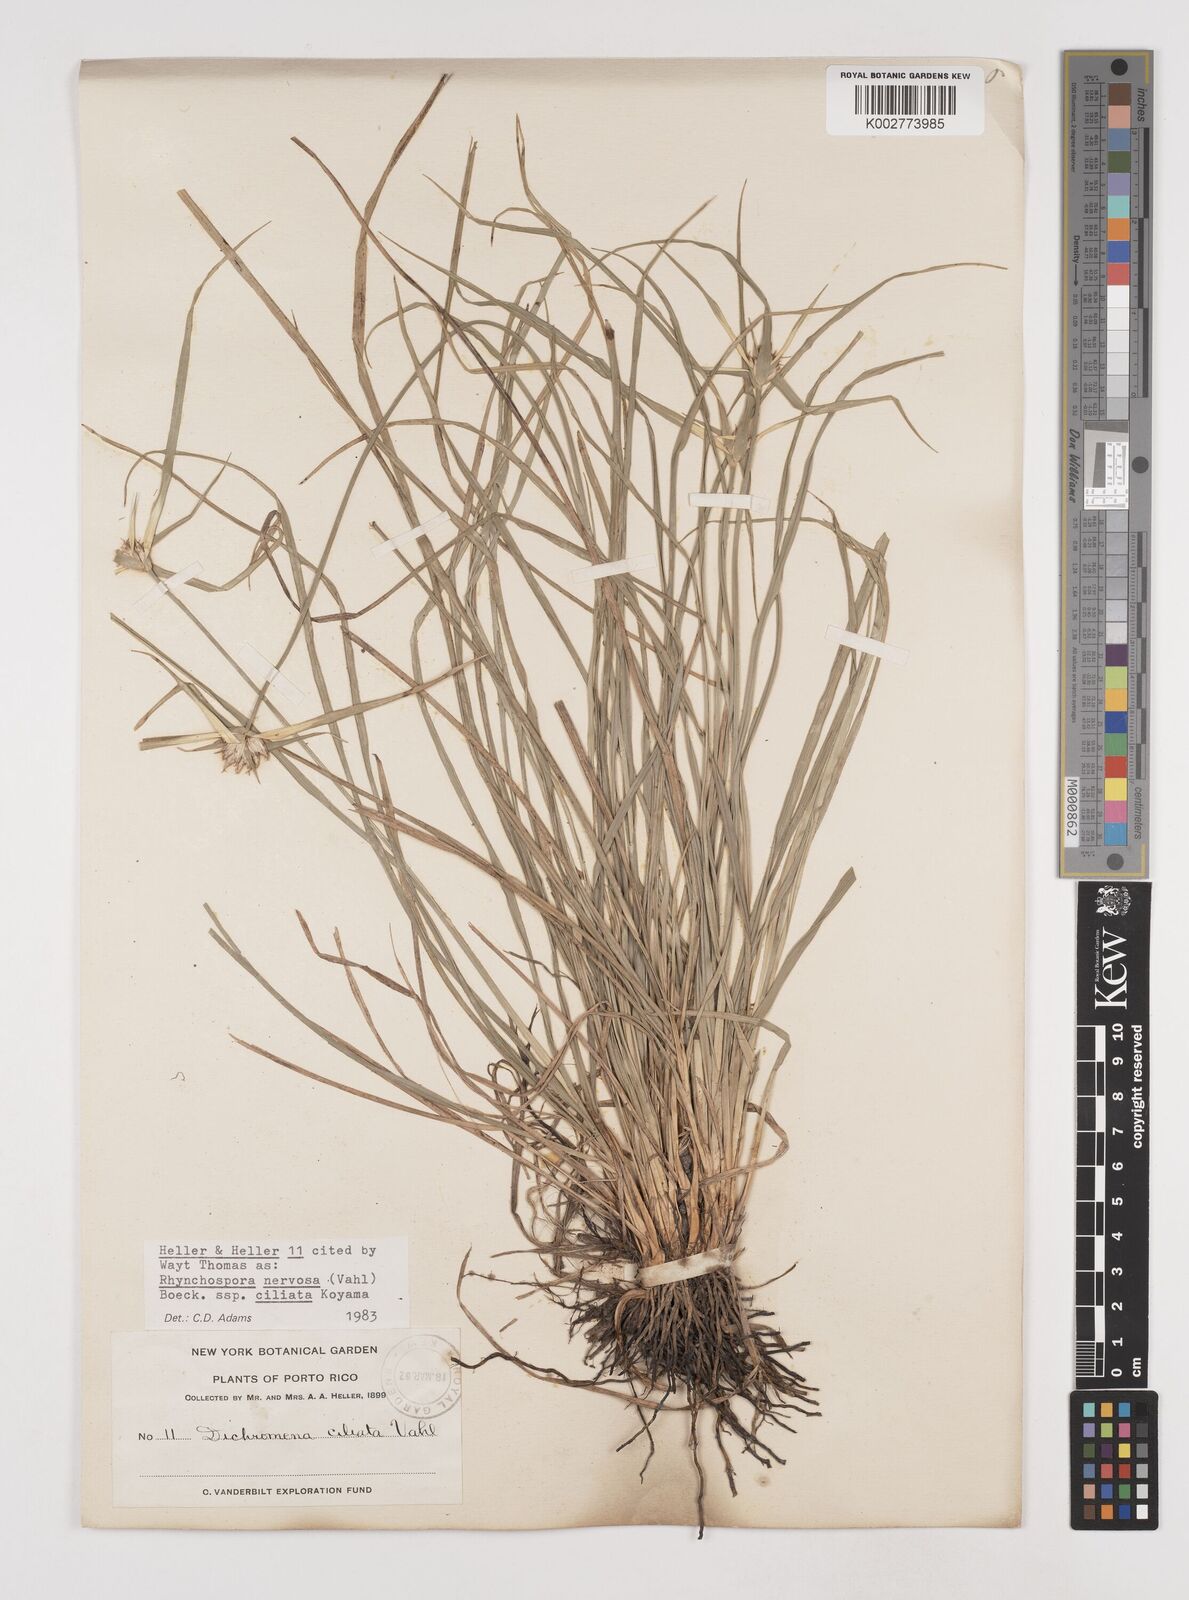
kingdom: Plantae
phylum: Tracheophyta
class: Liliopsida
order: Poales
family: Cyperaceae
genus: Rhynchospora
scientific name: Rhynchospora pura
